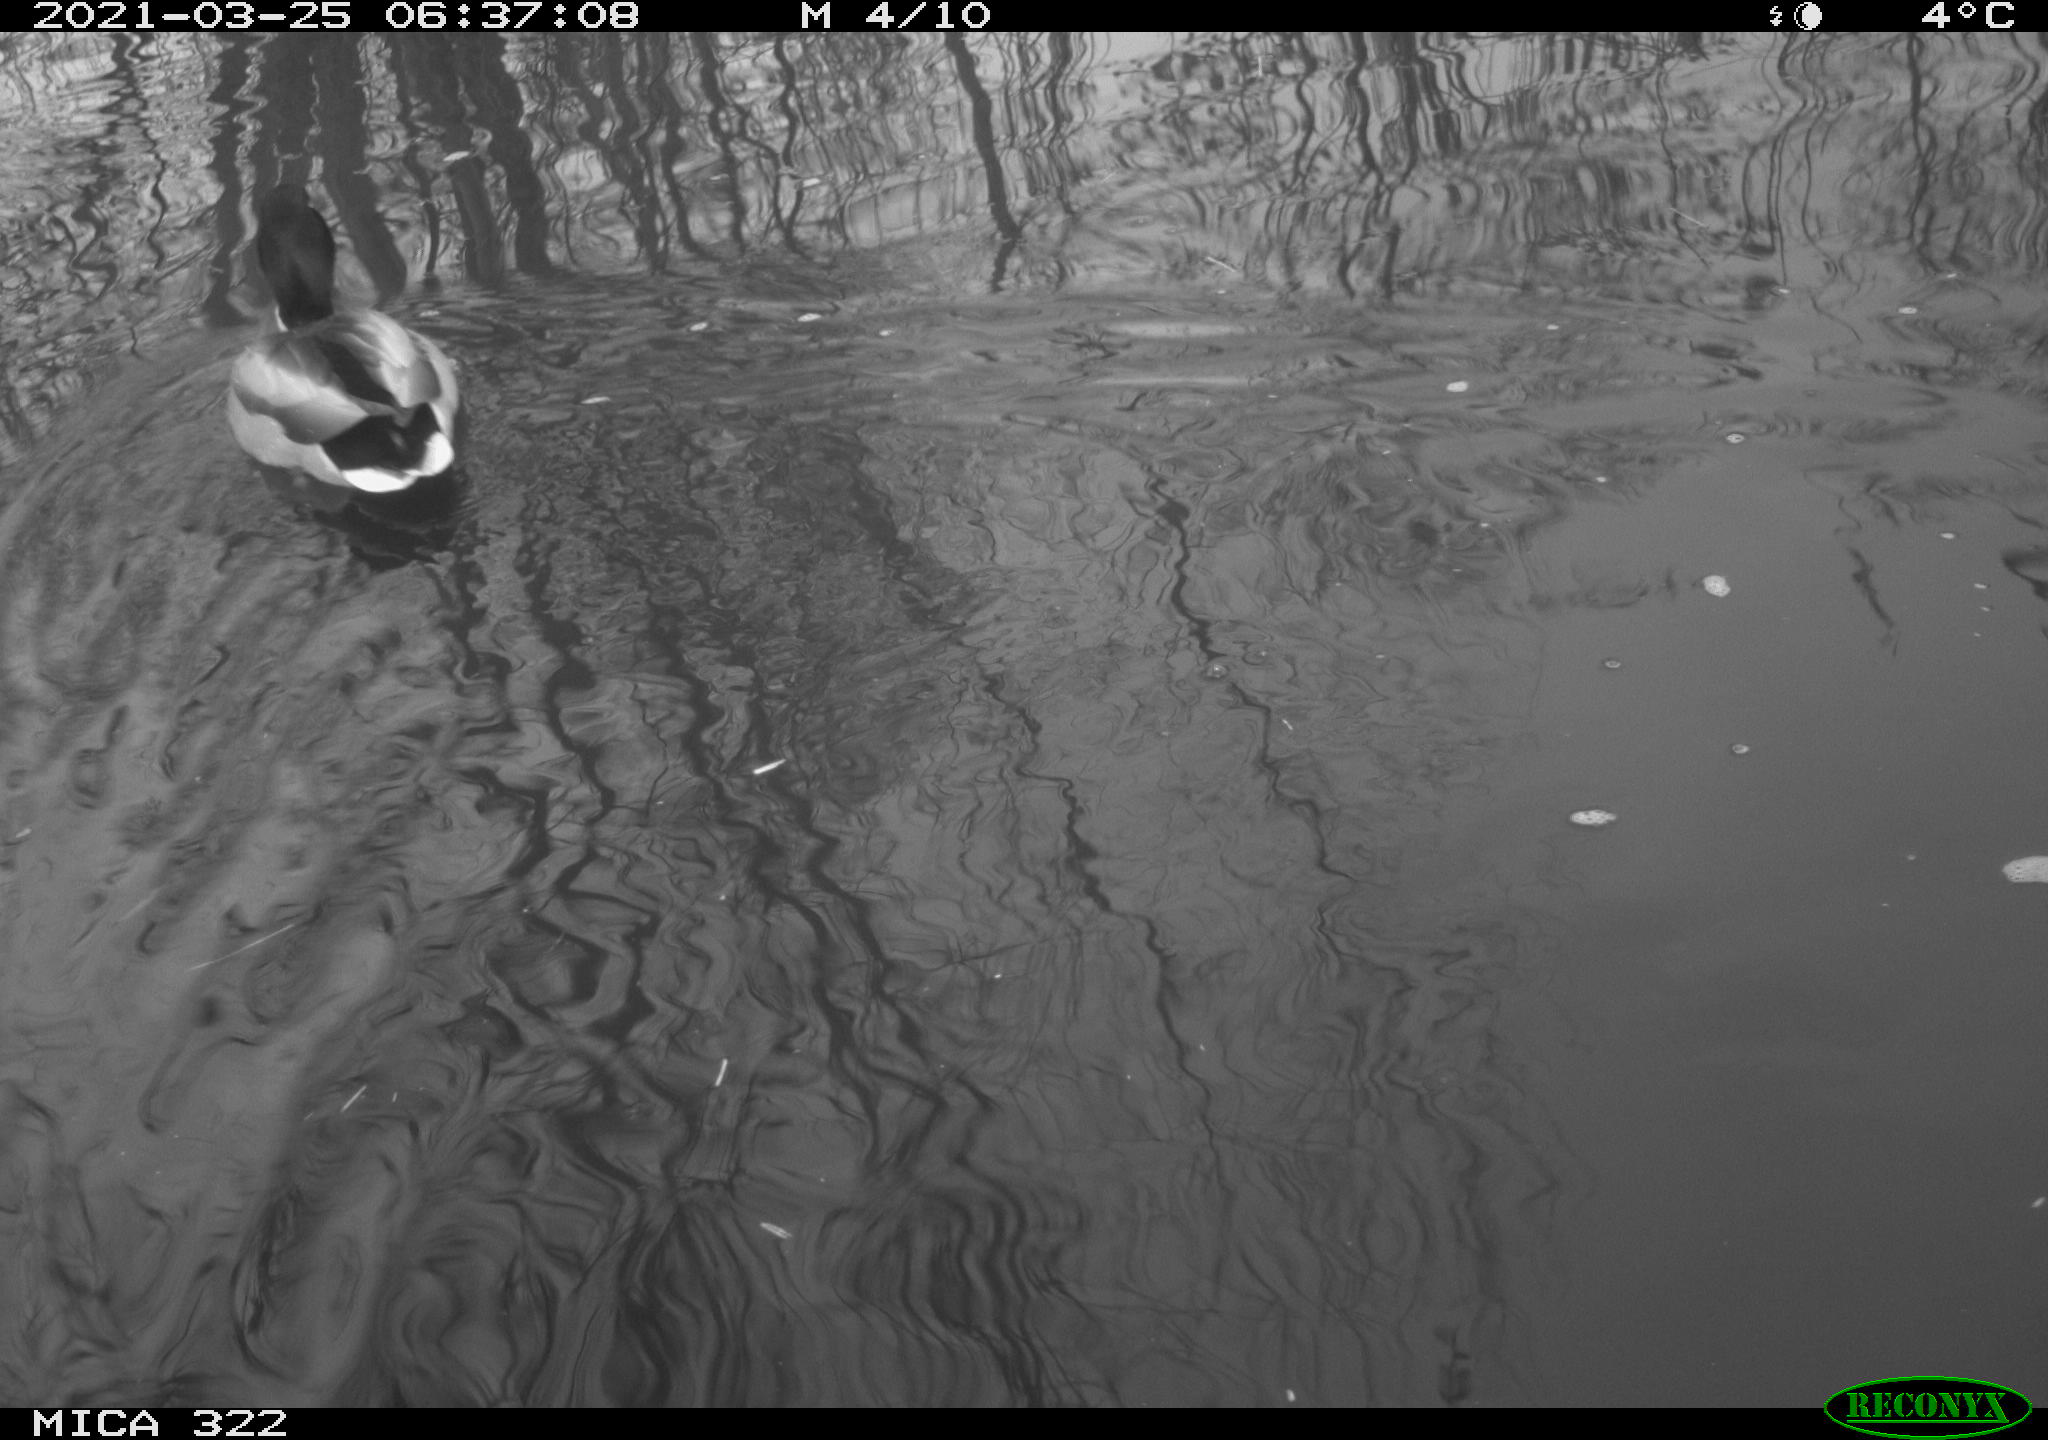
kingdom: Animalia
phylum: Chordata
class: Aves
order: Anseriformes
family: Anatidae
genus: Anas
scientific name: Anas platyrhynchos
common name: Mallard
